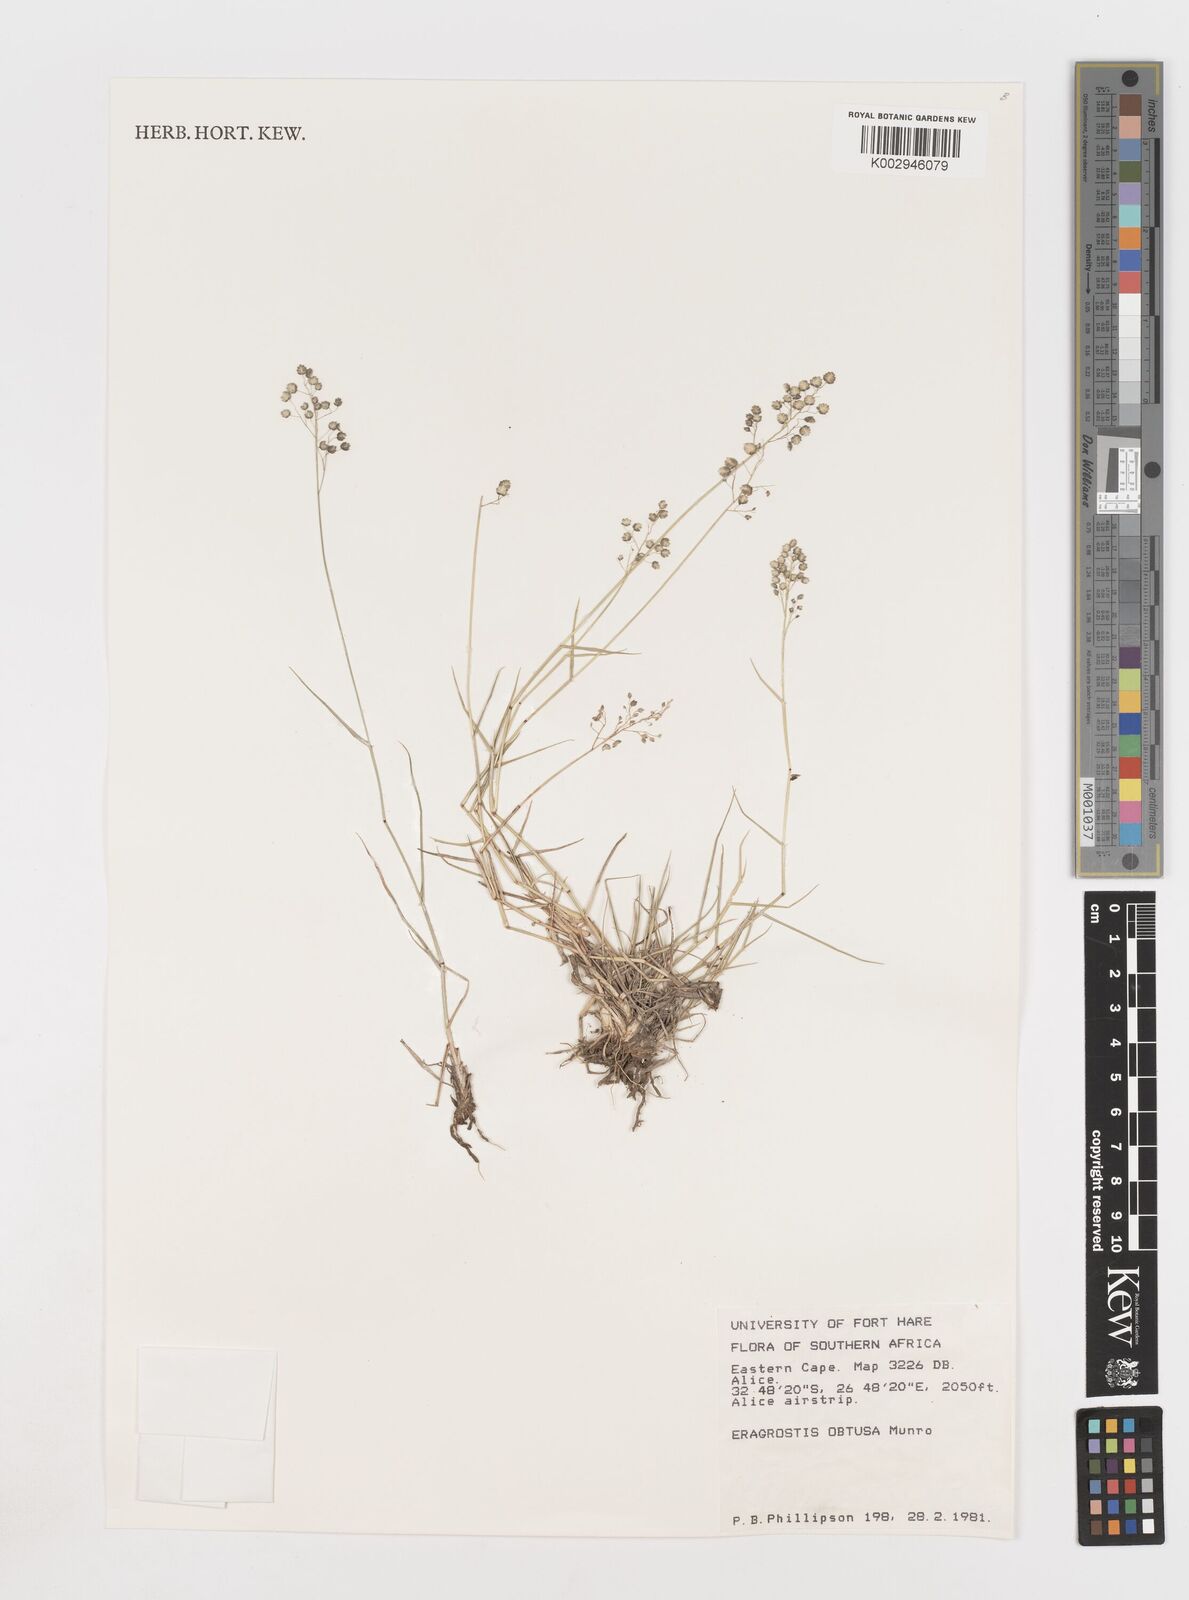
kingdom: Plantae
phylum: Tracheophyta
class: Liliopsida
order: Poales
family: Poaceae
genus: Eragrostis
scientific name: Eragrostis obtusa
